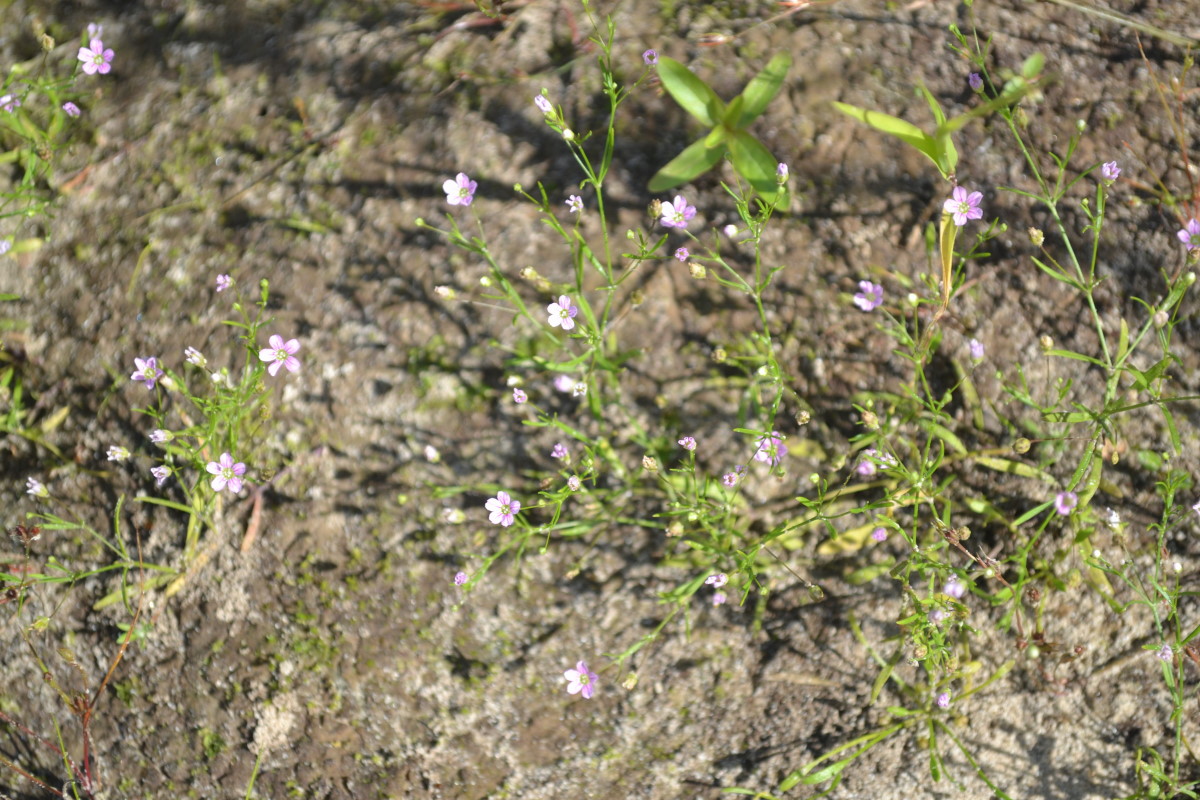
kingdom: Plantae
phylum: Tracheophyta
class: Magnoliopsida
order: Caryophyllales
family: Caryophyllaceae
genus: Psammophiliella
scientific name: Psammophiliella muralis
